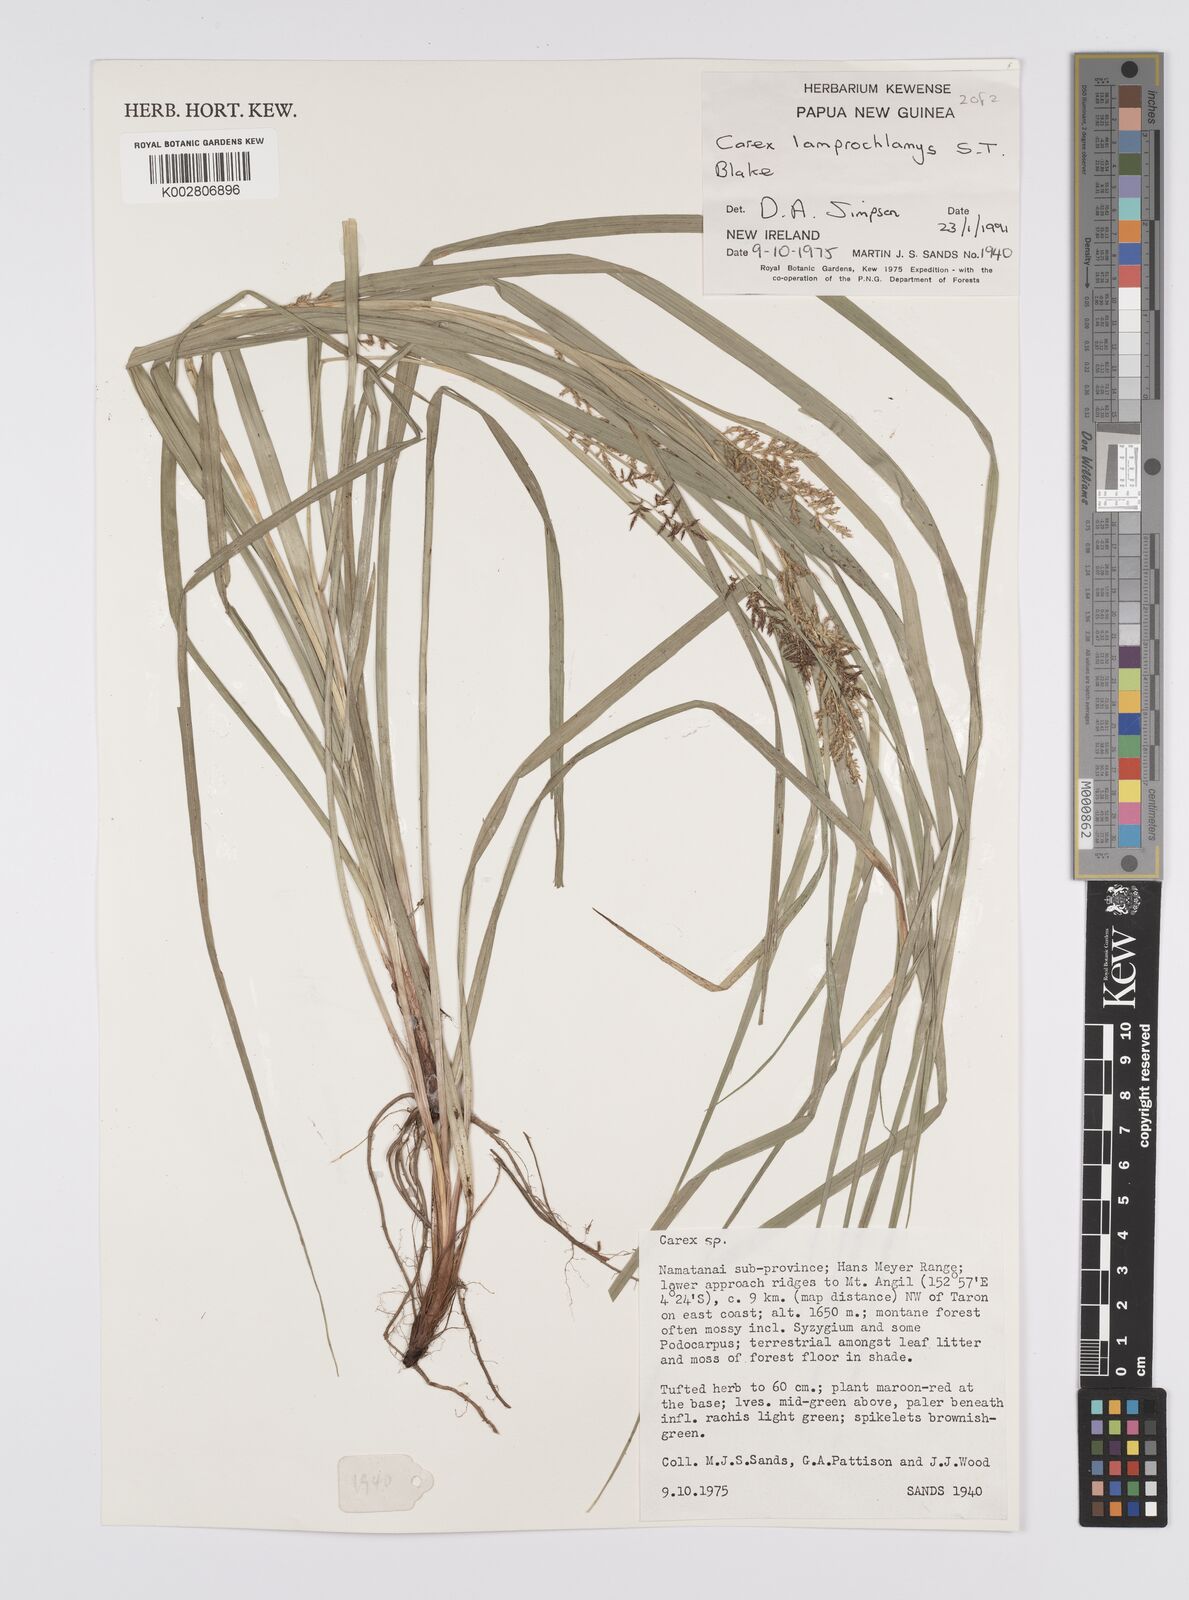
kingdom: Plantae
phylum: Tracheophyta
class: Liliopsida
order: Poales
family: Cyperaceae
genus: Carex
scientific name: Carex lamprochlamys
